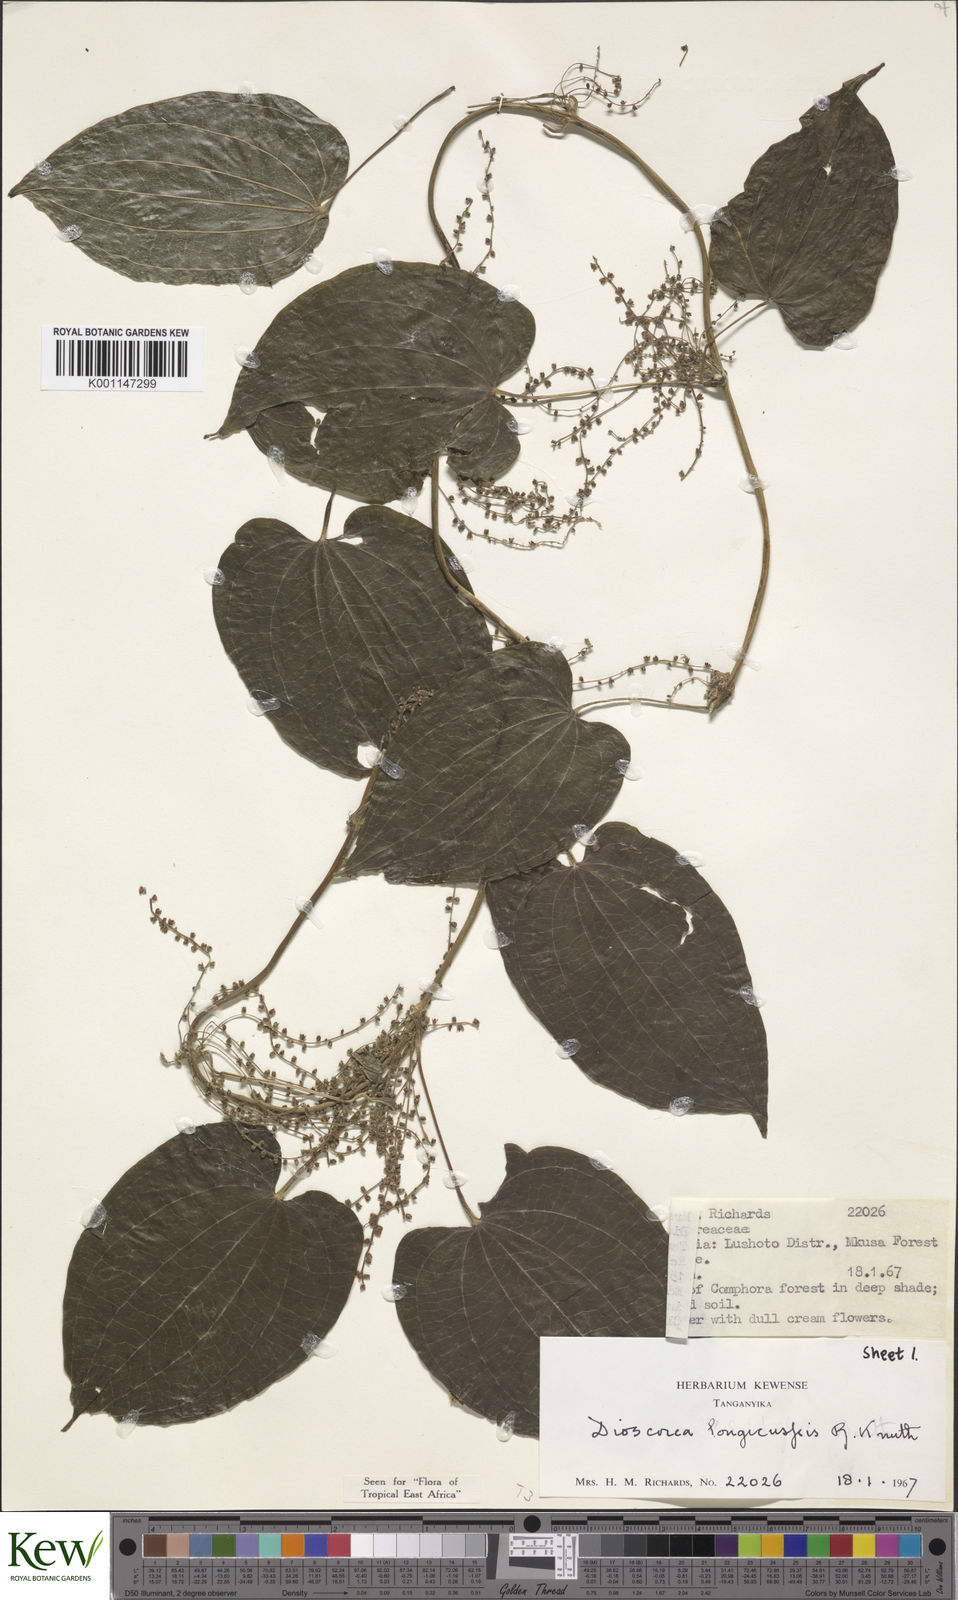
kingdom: Plantae
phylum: Tracheophyta
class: Liliopsida
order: Dioscoreales
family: Dioscoreaceae
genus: Dioscorea
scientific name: Dioscorea longicuspis
